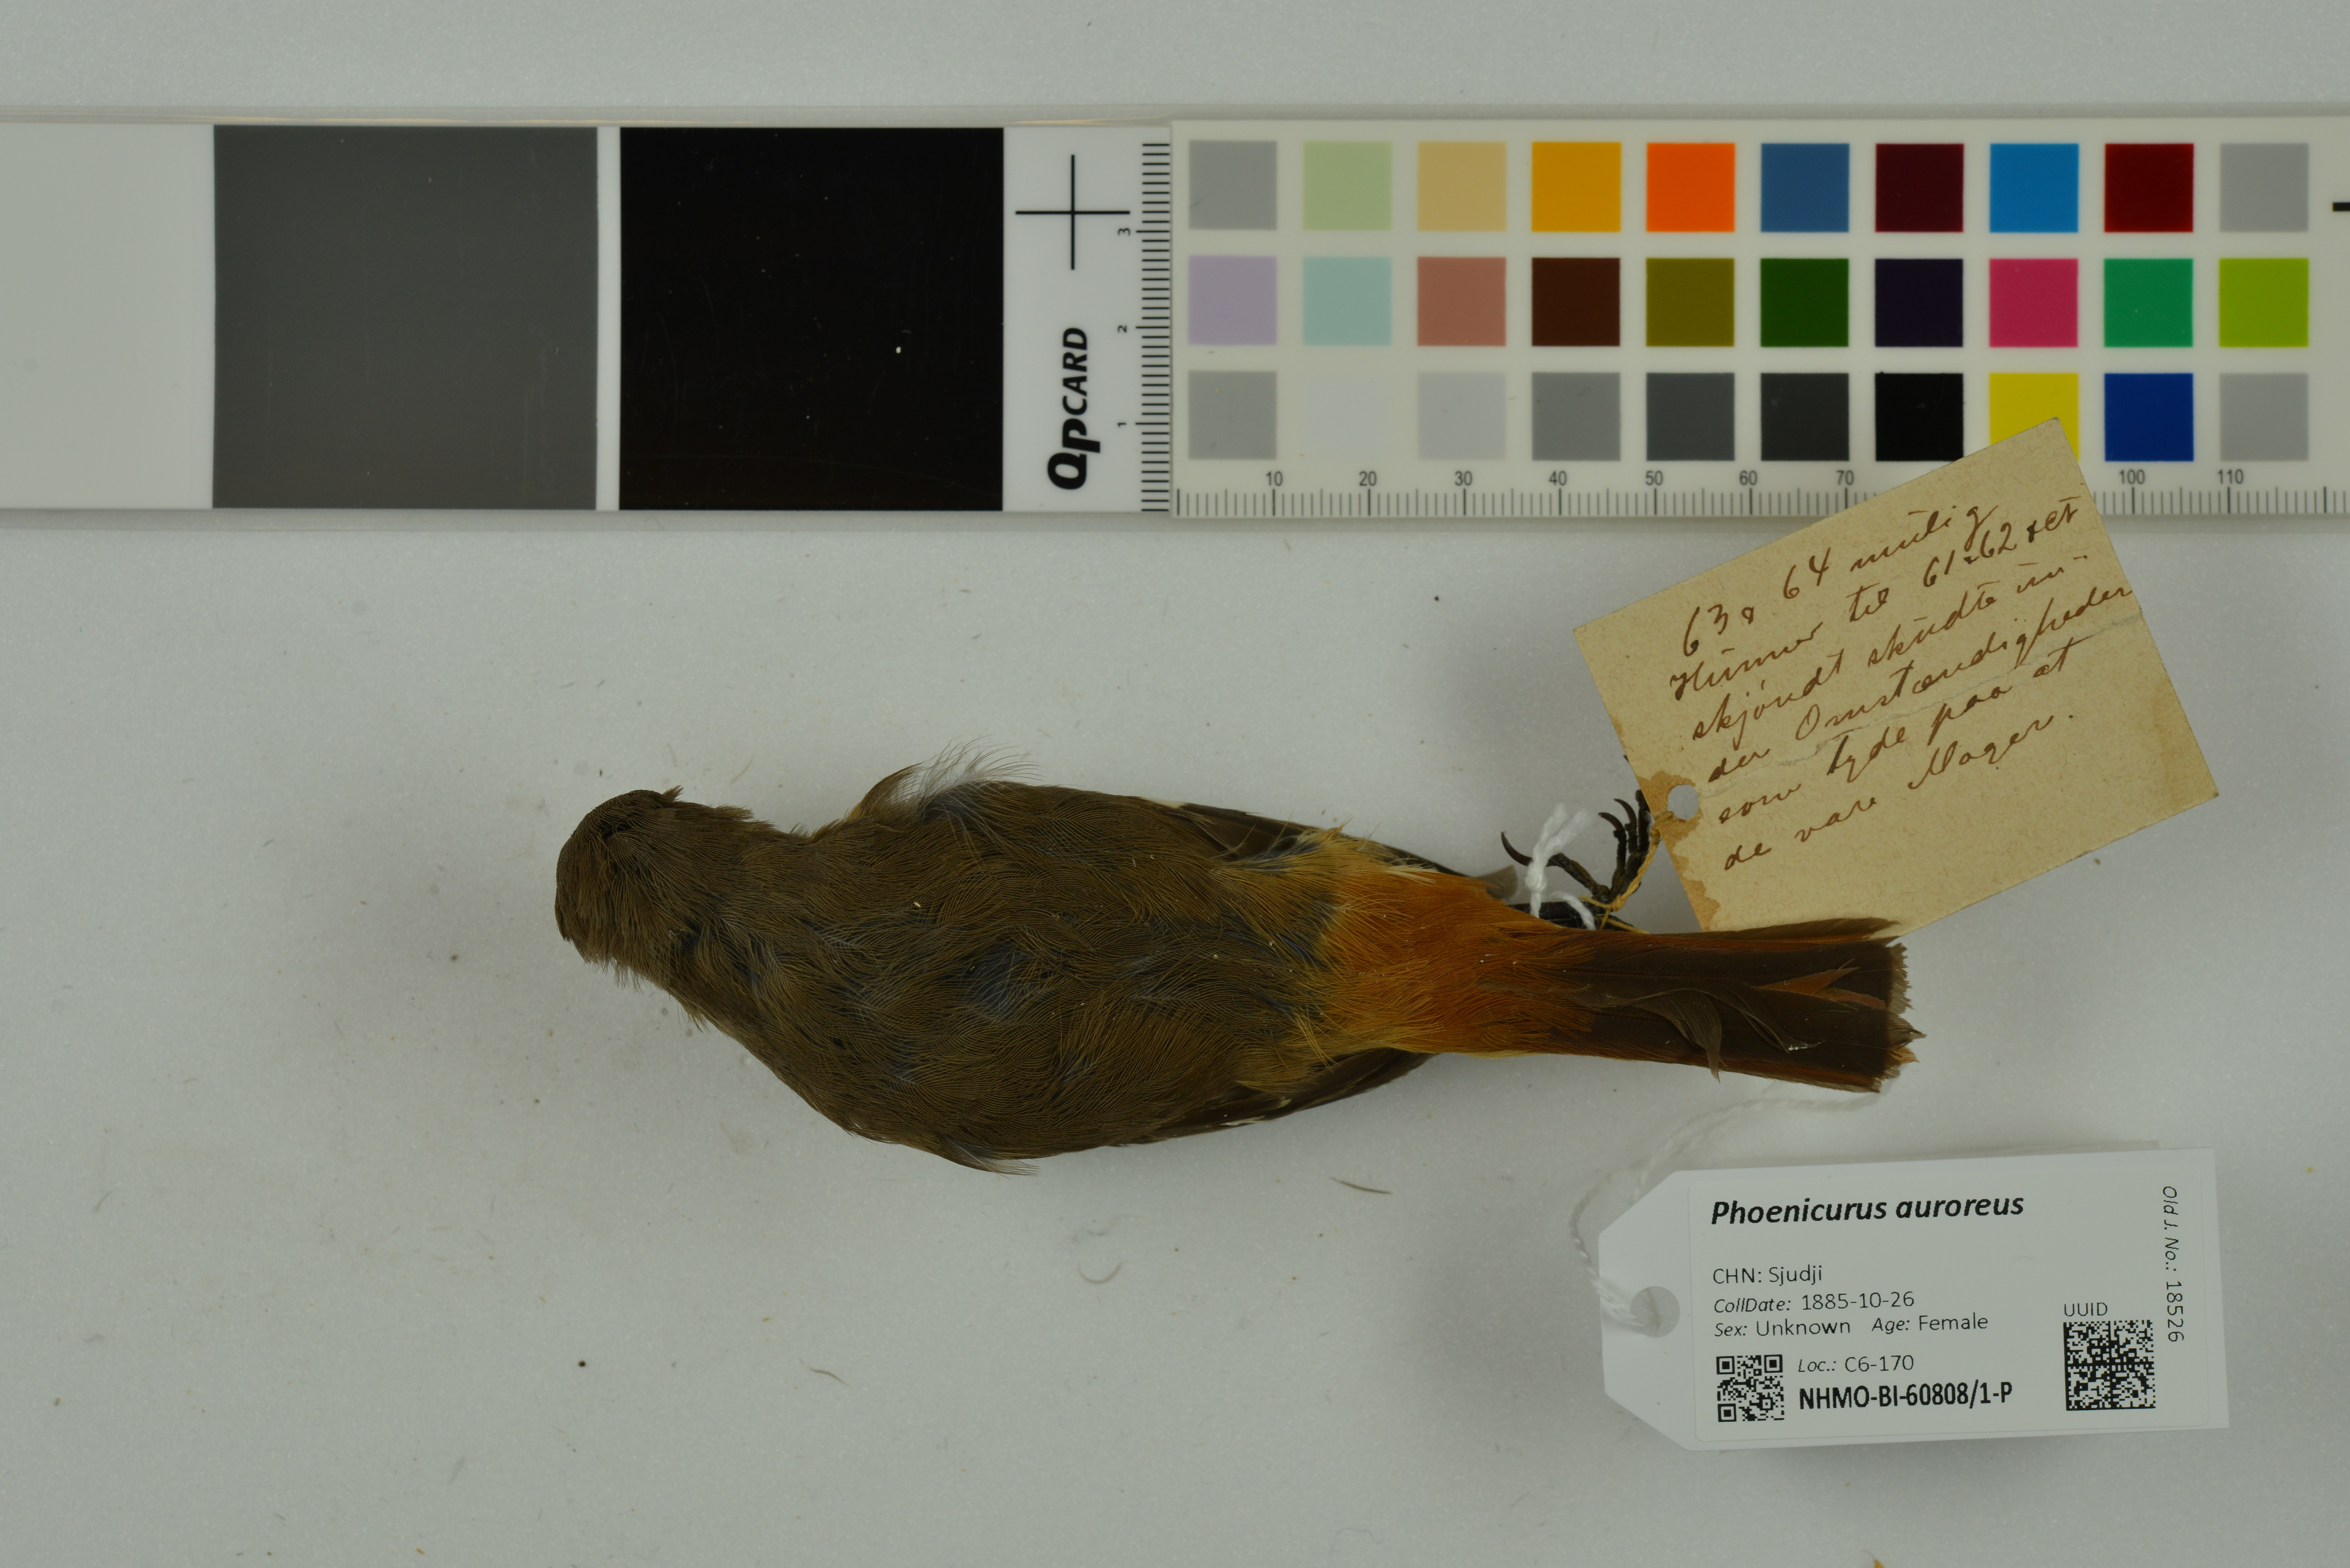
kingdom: Animalia
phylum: Chordata
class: Aves
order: Passeriformes
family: Muscicapidae
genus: Phoenicurus
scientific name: Phoenicurus auroreus
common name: Daurian redstart
